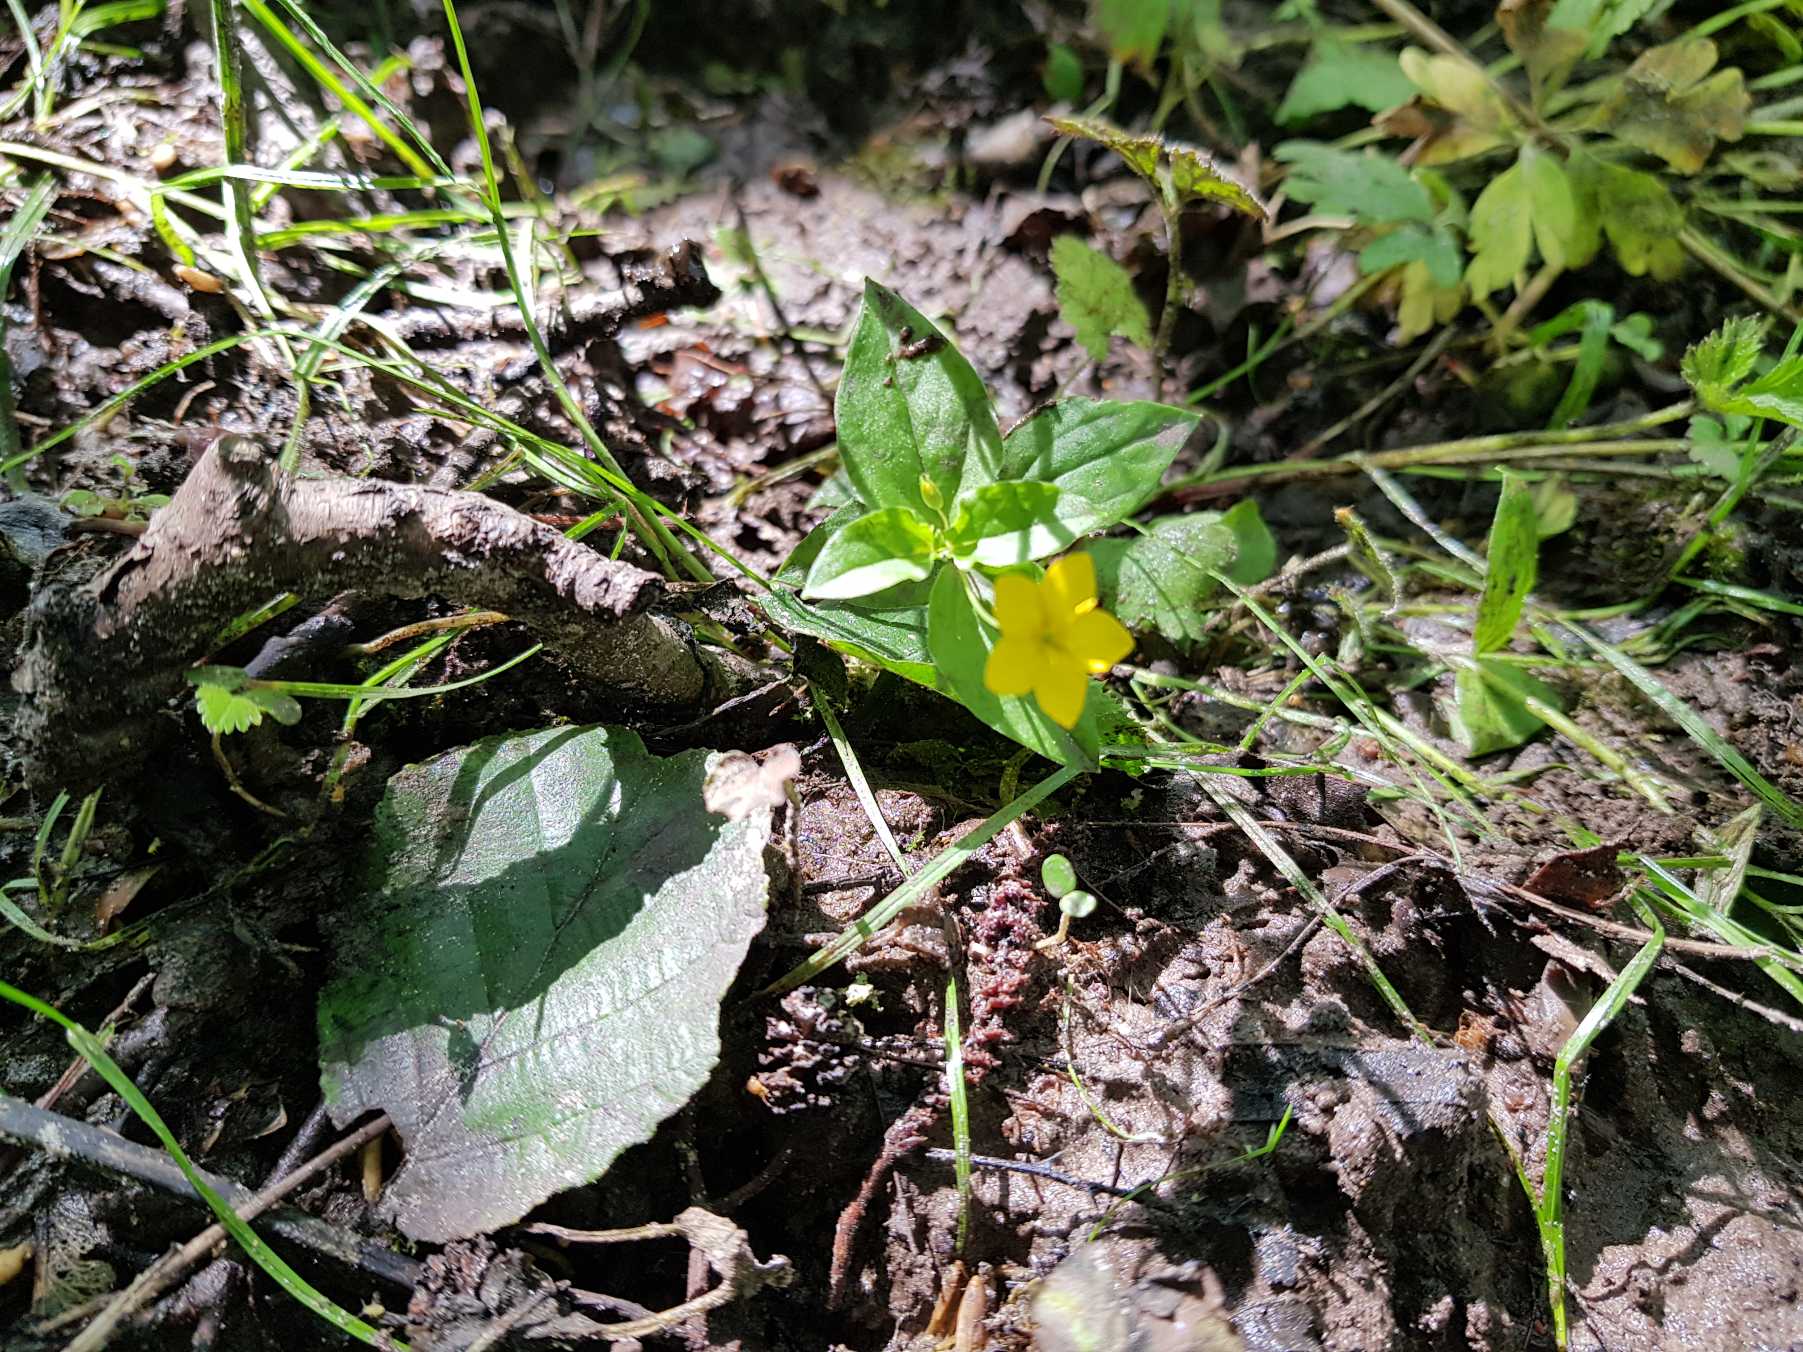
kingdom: Plantae
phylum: Tracheophyta
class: Magnoliopsida
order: Ericales
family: Primulaceae
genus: Lysimachia
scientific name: Lysimachia nemorum
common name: Lund-fredløs
